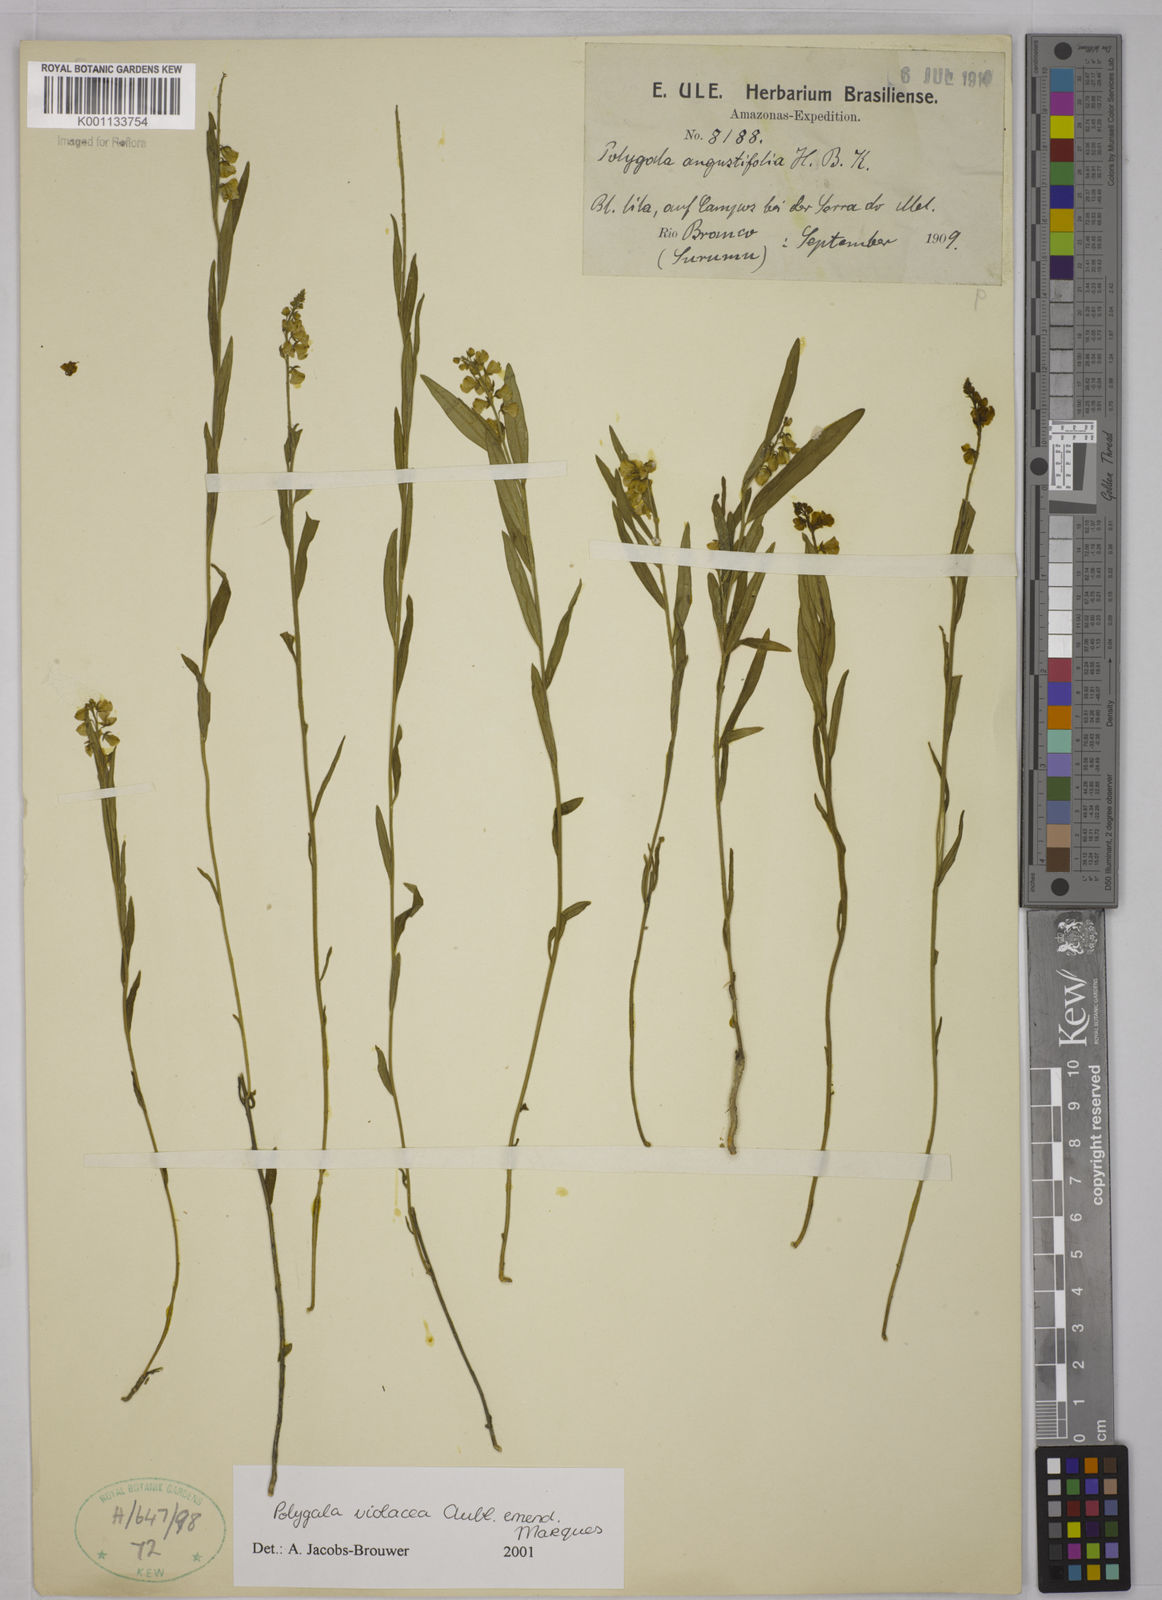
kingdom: Plantae
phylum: Tracheophyta
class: Magnoliopsida
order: Fabales
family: Polygalaceae
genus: Asemeia
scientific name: Asemeia monticola
